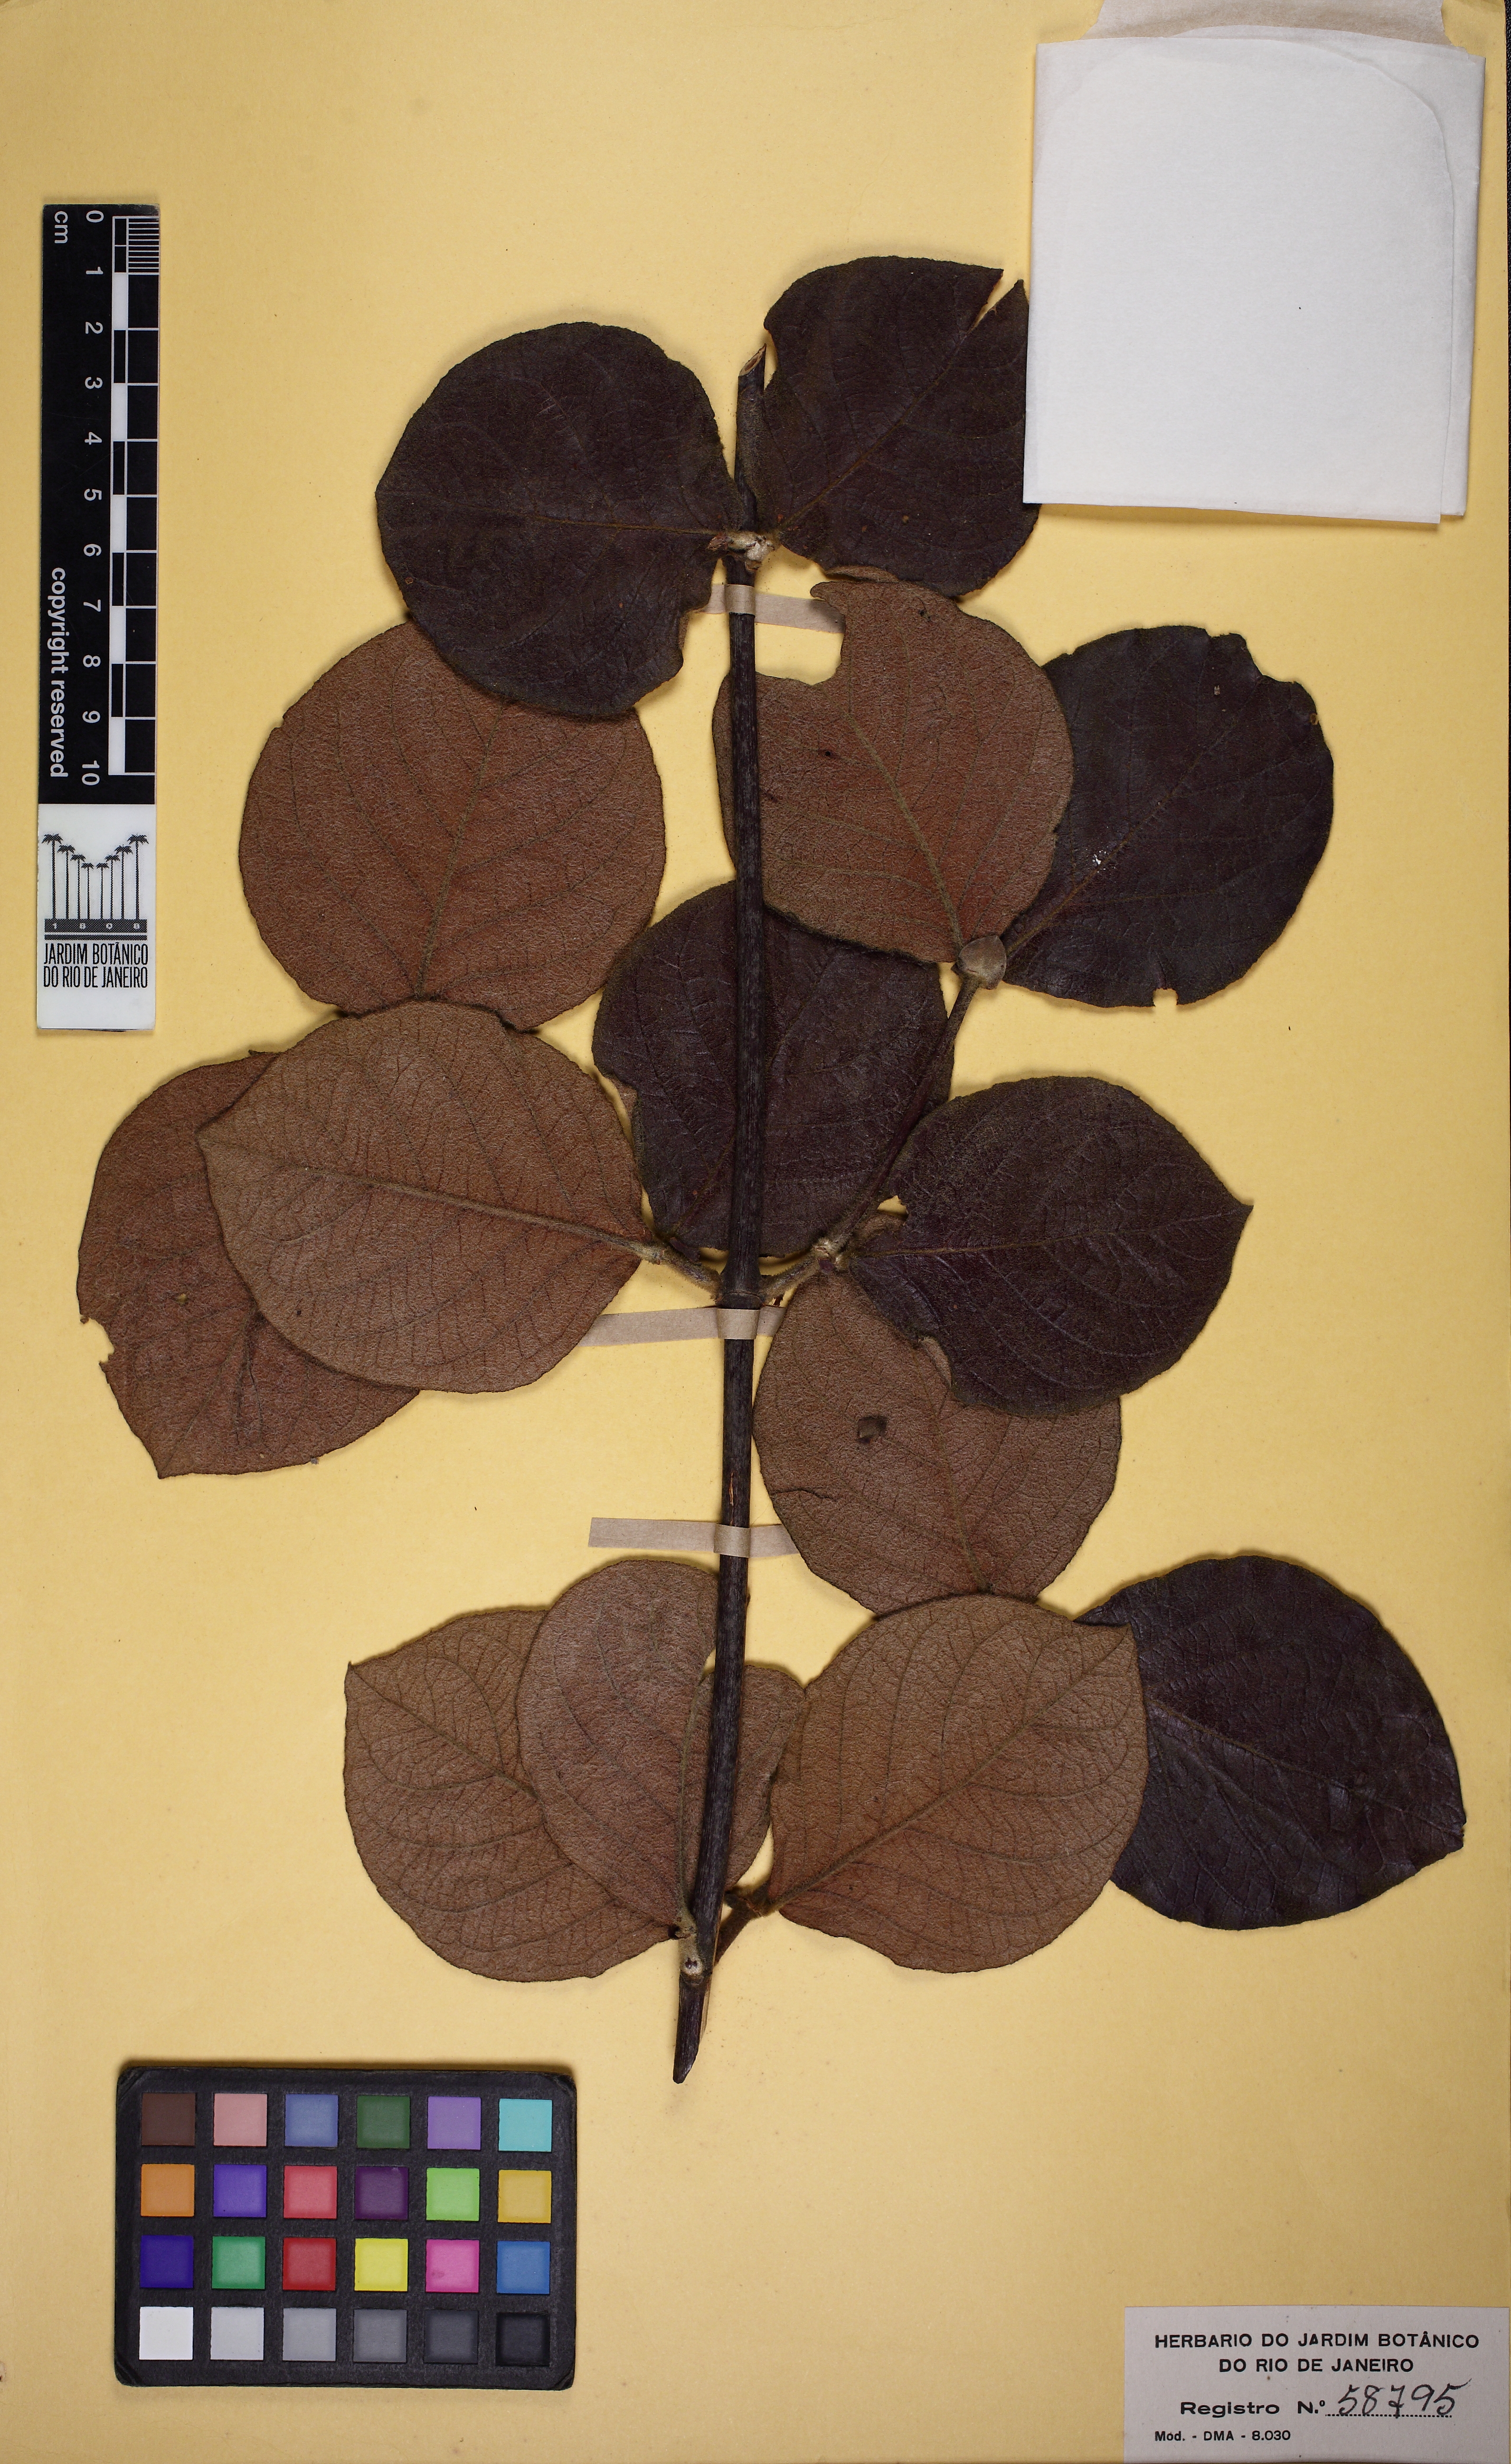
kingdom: Plantae
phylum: Tracheophyta
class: Magnoliopsida
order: Malpighiales
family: Malpighiaceae
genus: Peixotoa
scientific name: Peixotoa reticulata
